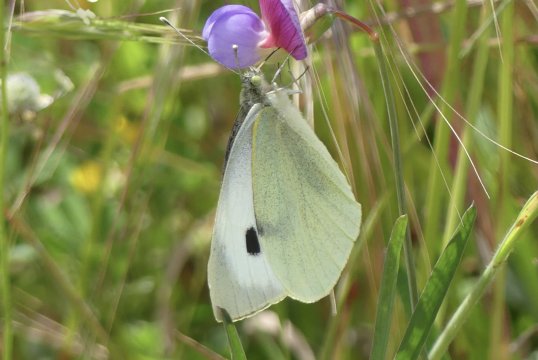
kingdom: Animalia
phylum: Arthropoda
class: Insecta
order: Lepidoptera
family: Pieridae
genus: Pieris
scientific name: Pieris brassicae
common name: Large White Butterfly
